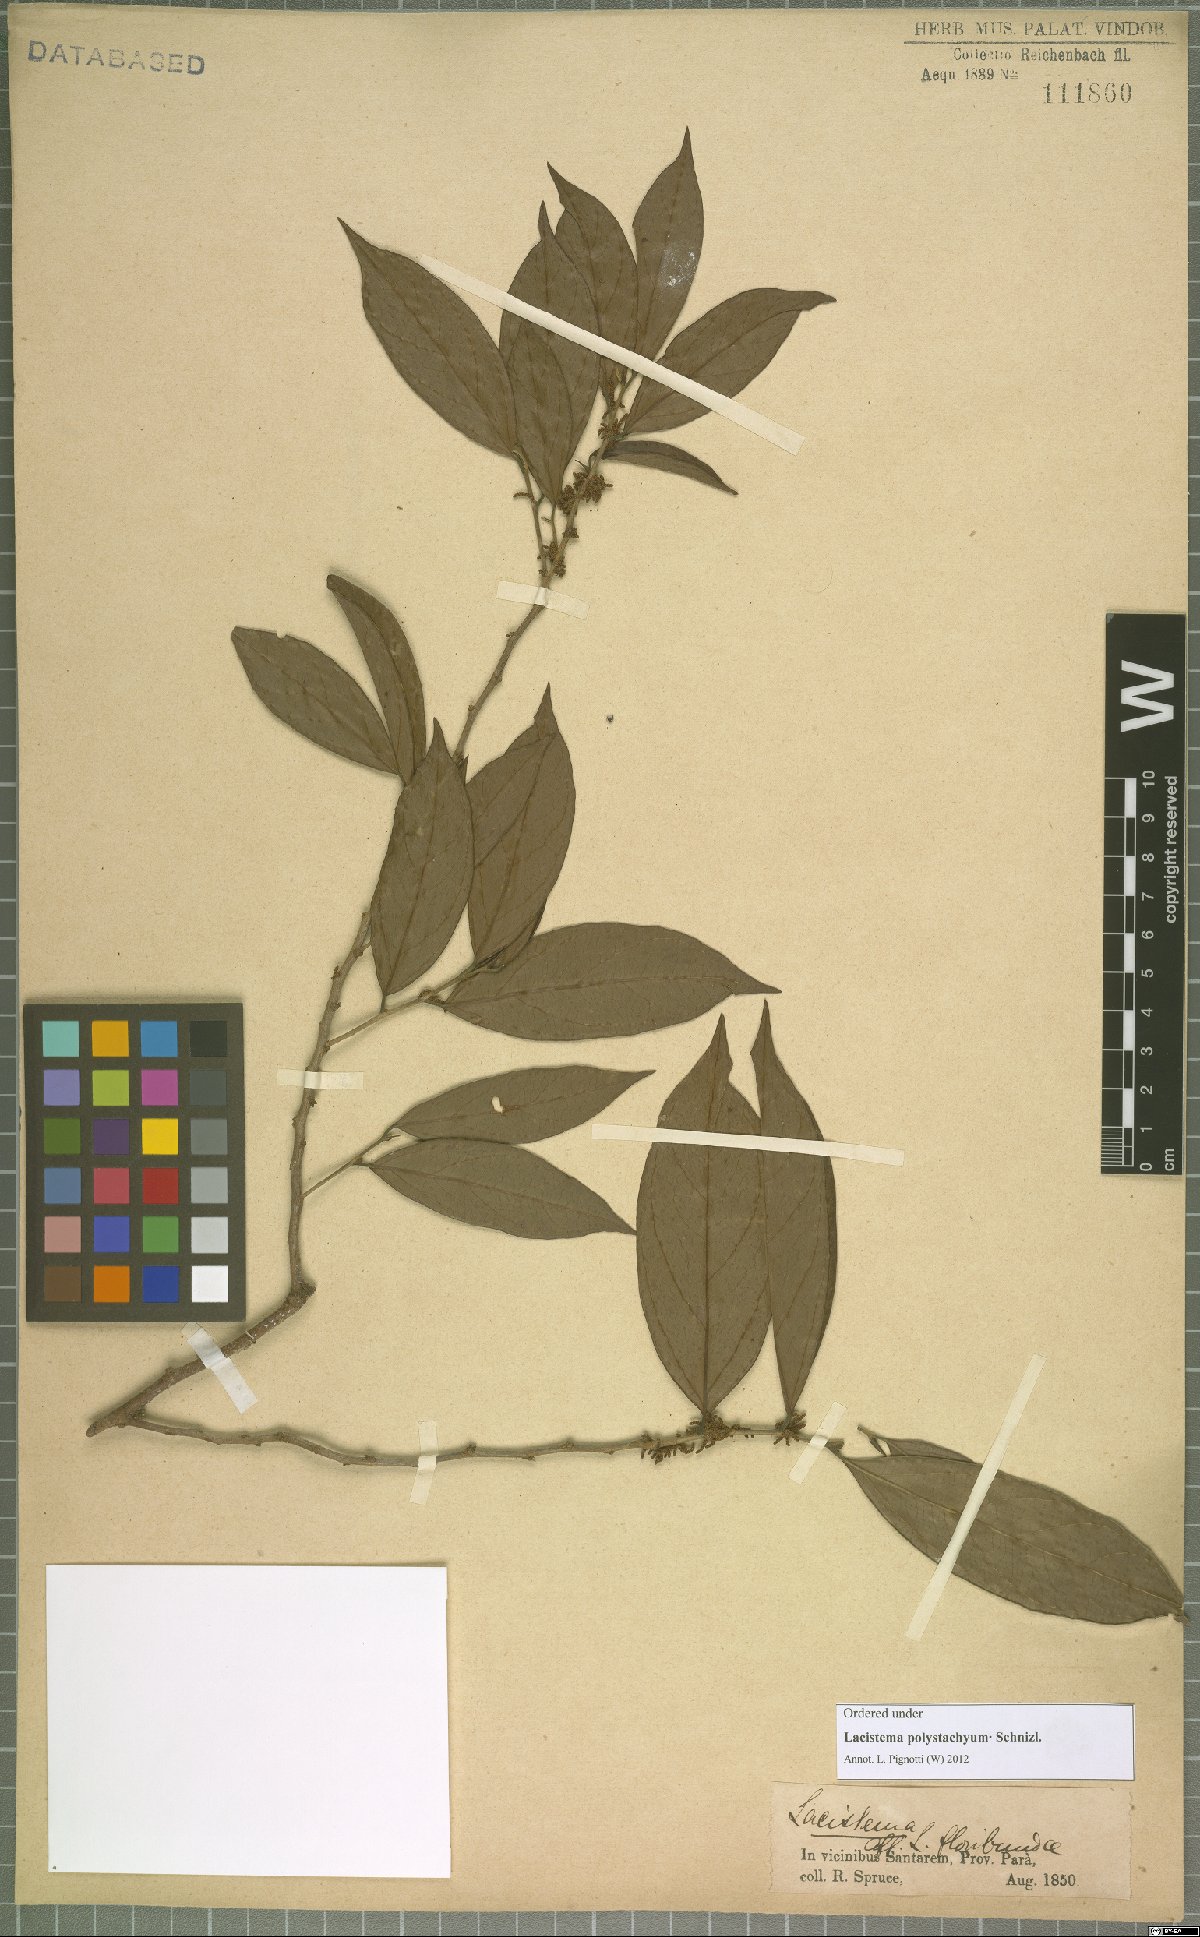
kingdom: Plantae
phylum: Tracheophyta
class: Magnoliopsida
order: Malpighiales
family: Lacistemataceae
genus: Lacistema
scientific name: Lacistema polystachyum
